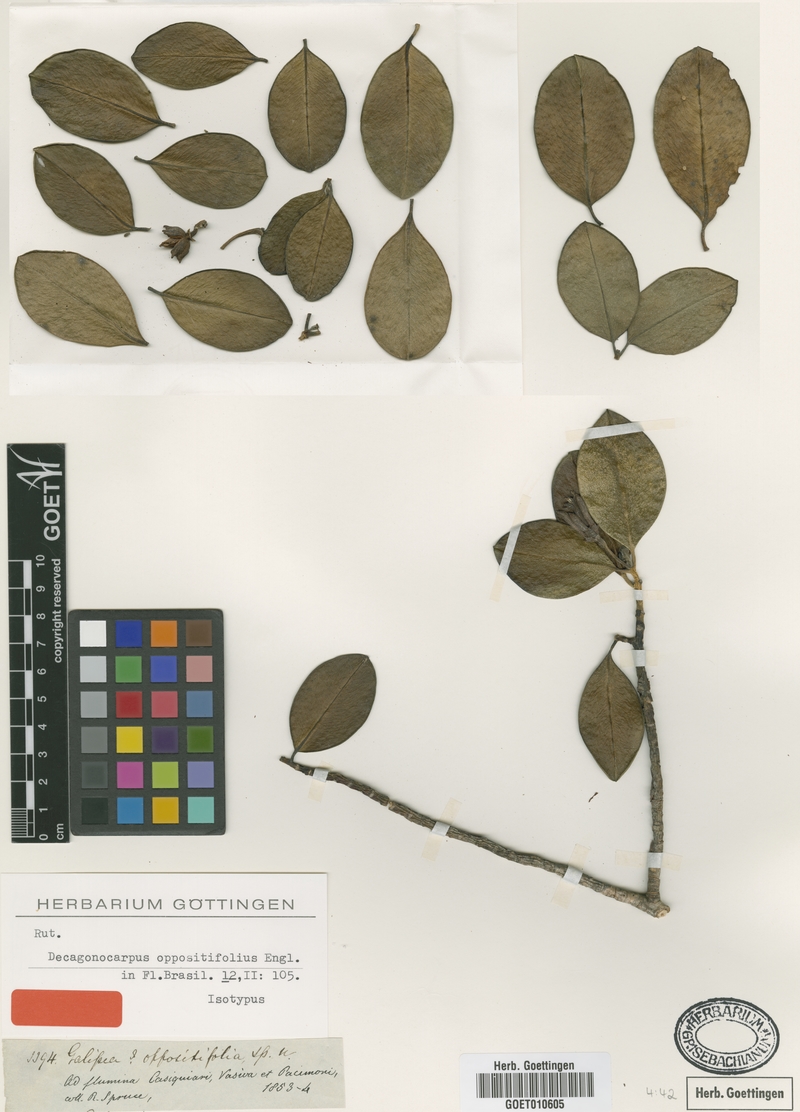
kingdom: Plantae
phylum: Tracheophyta
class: Magnoliopsida
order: Sapindales
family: Rutaceae
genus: Decagonocarpus
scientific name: Decagonocarpus oppositifolius
